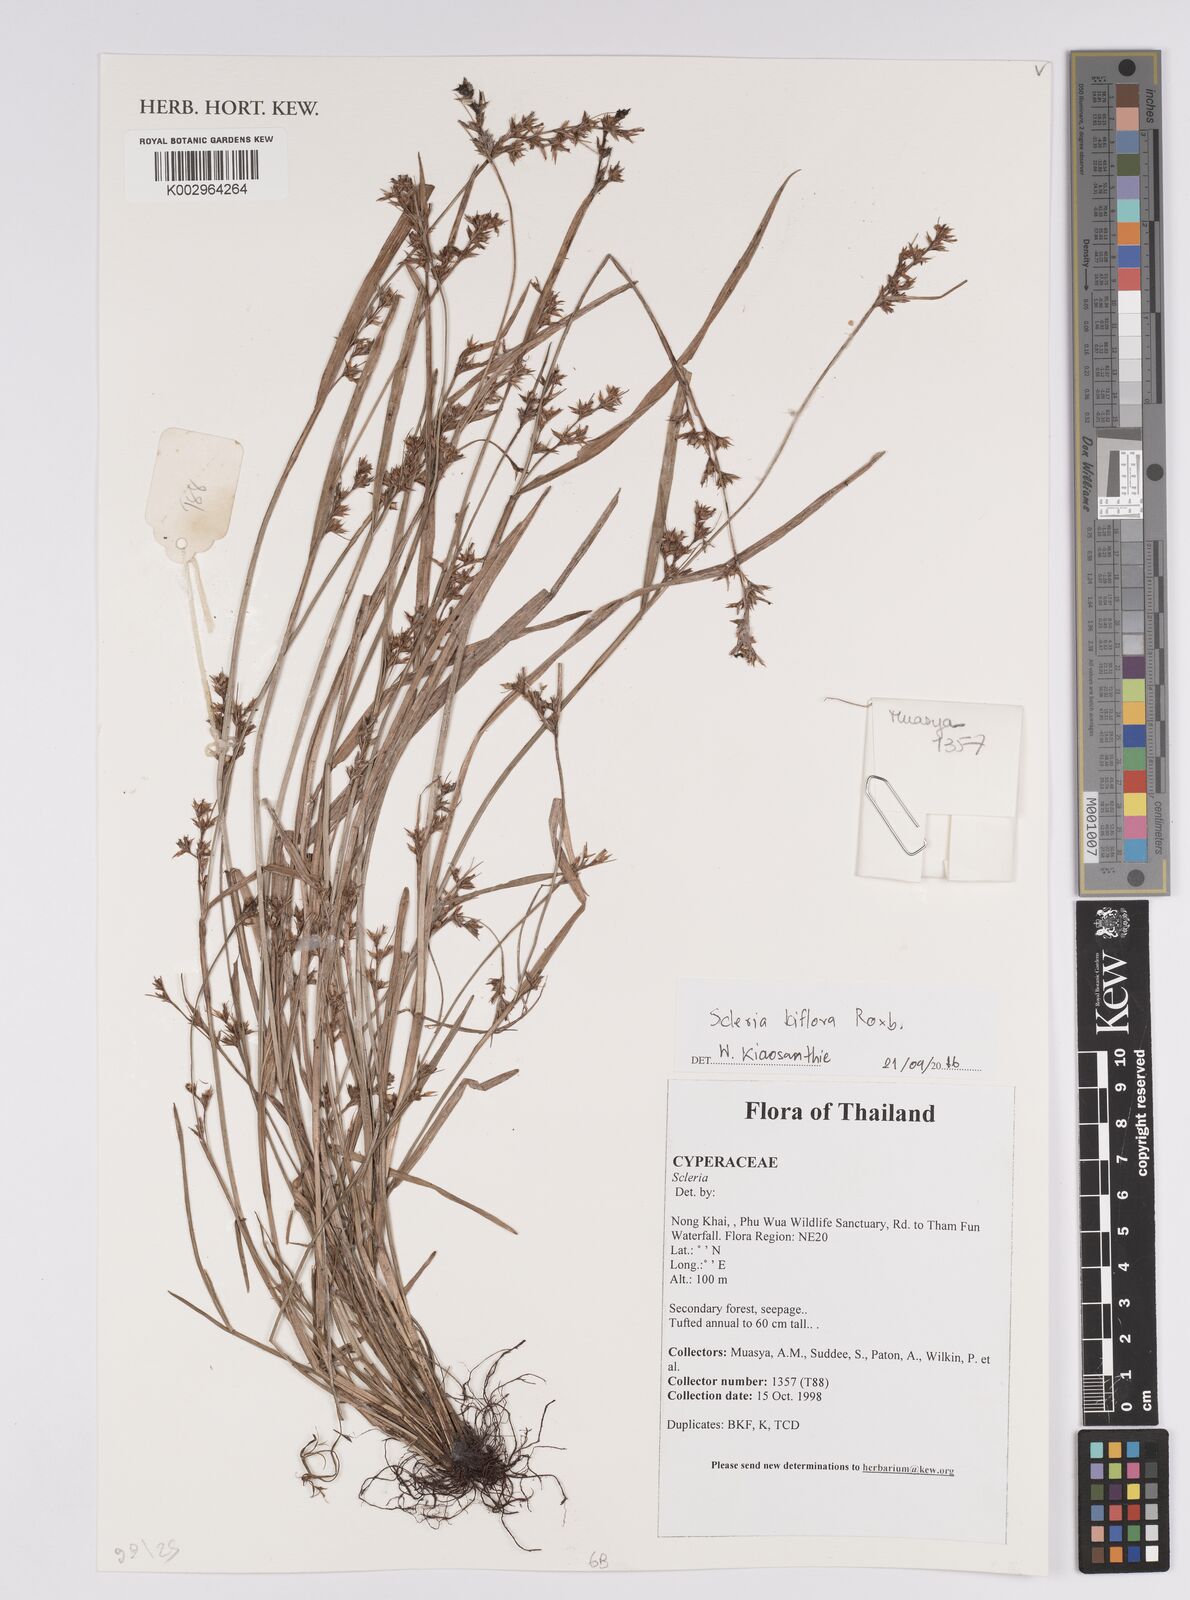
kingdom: Plantae
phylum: Tracheophyta
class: Liliopsida
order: Poales
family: Cyperaceae
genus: Scleria
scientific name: Scleria biflora
